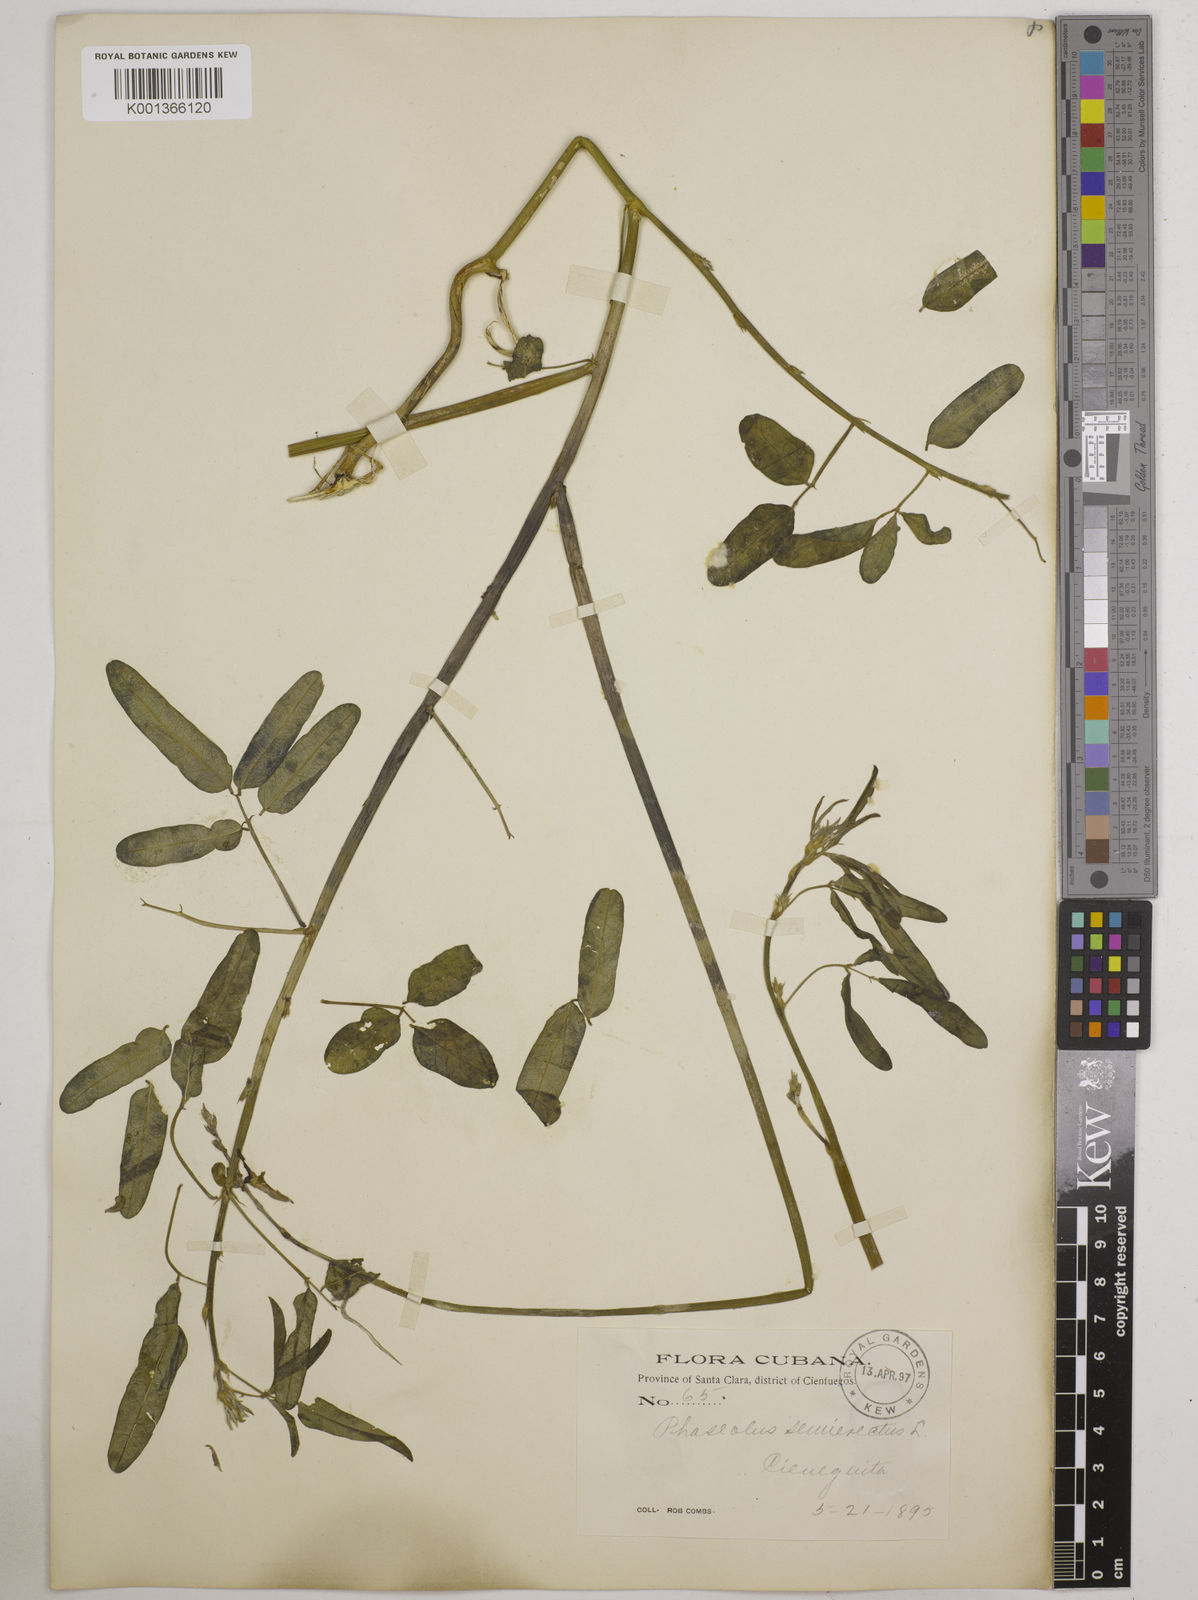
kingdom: Plantae
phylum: Tracheophyta
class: Magnoliopsida
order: Fabales
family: Fabaceae
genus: Macroptilium
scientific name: Macroptilium lathyroides
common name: Wild bushbean
